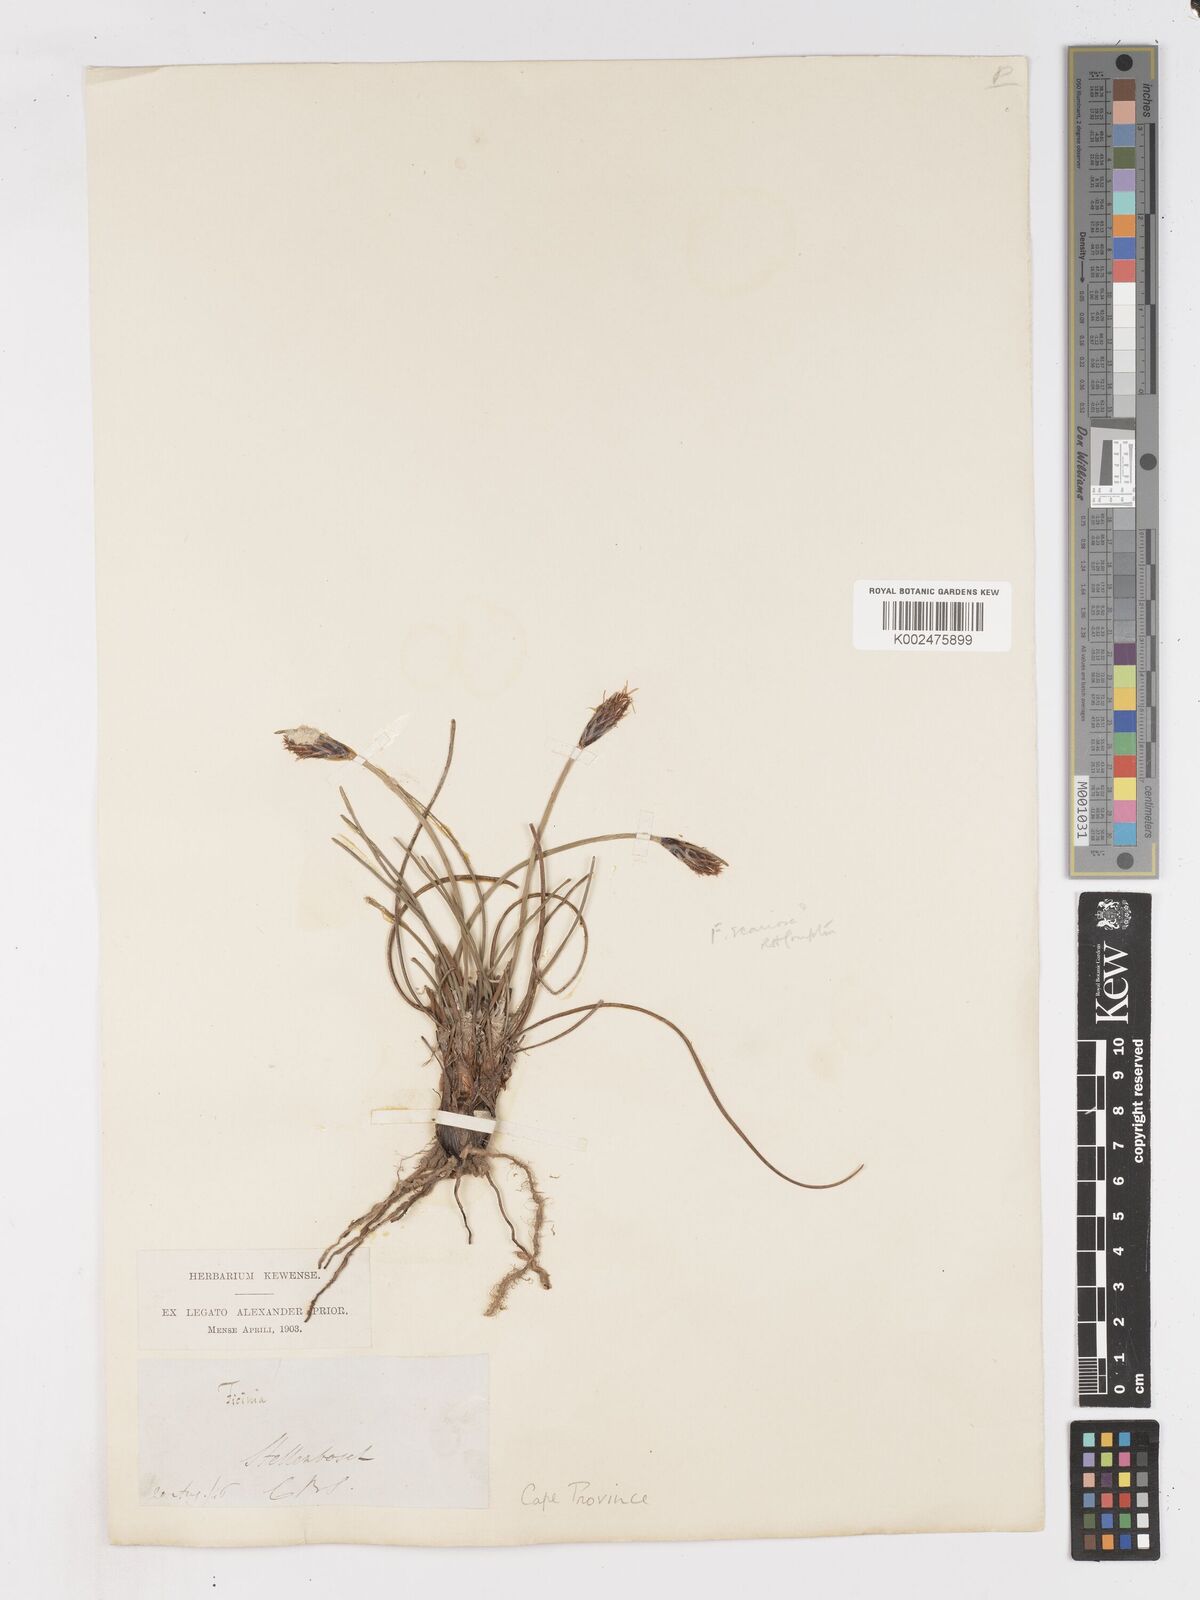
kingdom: Plantae
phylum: Tracheophyta
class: Liliopsida
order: Poales
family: Cyperaceae
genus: Ficinia
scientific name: Ficinia deusta
